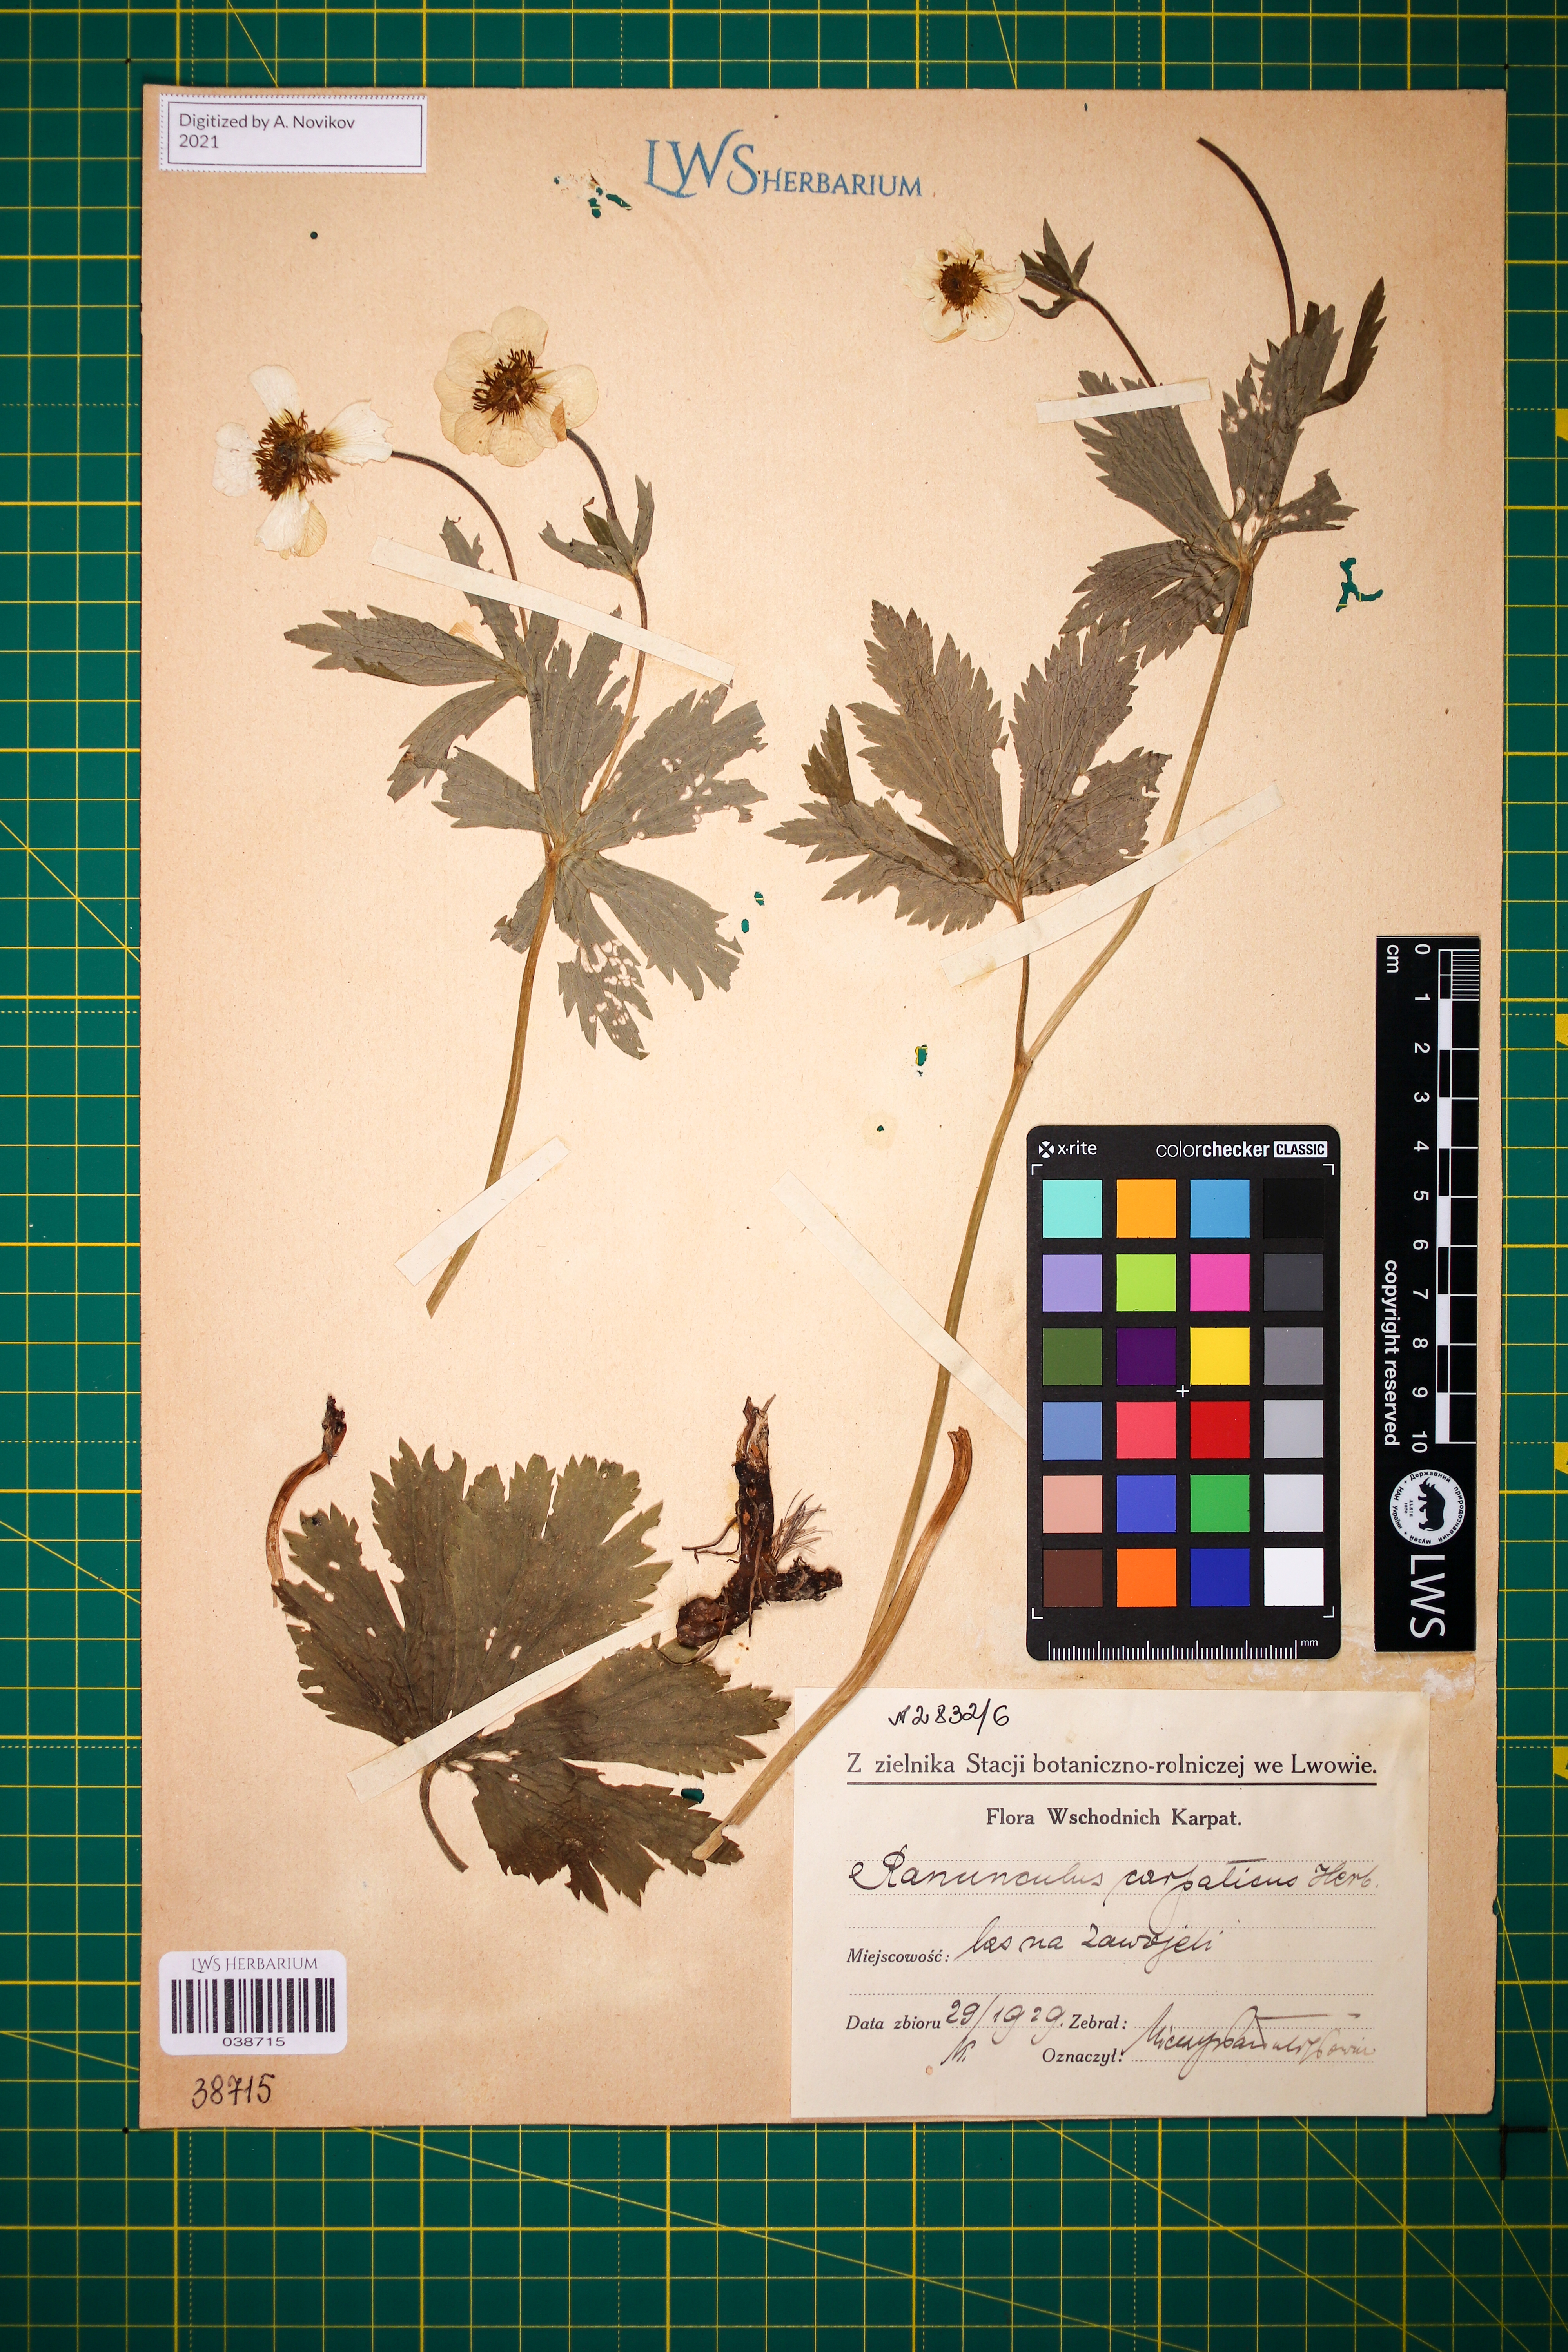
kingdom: Plantae
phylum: Tracheophyta
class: Magnoliopsida
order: Ranunculales
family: Ranunculaceae
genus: Ranunculus
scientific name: Ranunculus carpaticus
